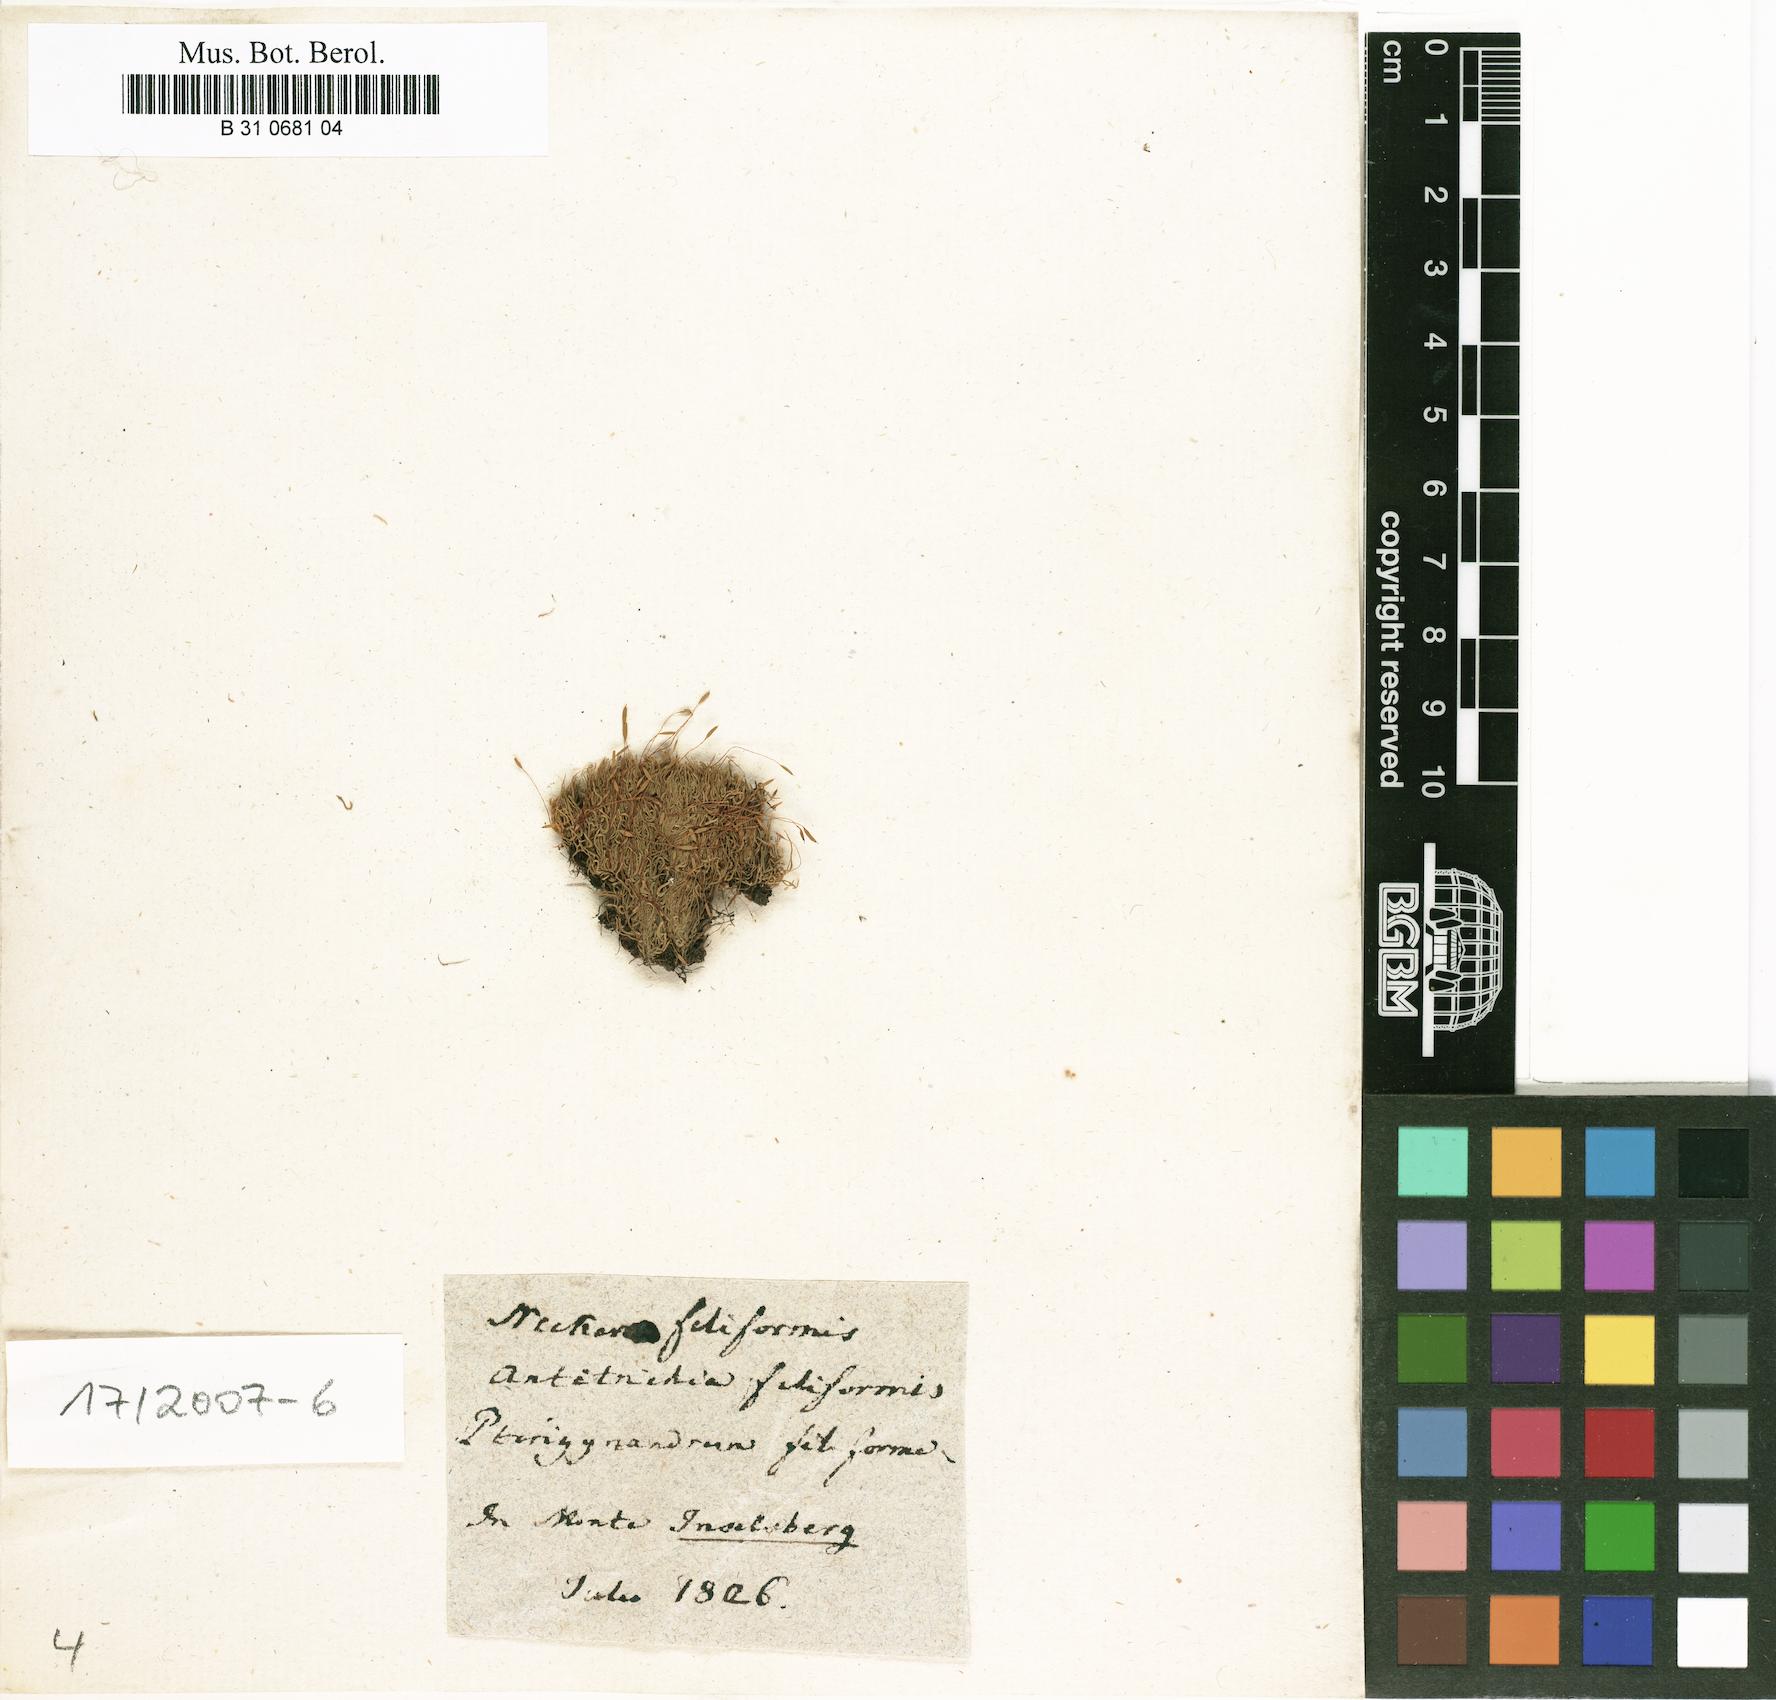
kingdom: Plantae
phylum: Bryophyta
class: Bryopsida
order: Hypnales
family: Pterigynandraceae
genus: Pterigynandrum
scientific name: Pterigynandrum filiforme
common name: Capillary wing moss
